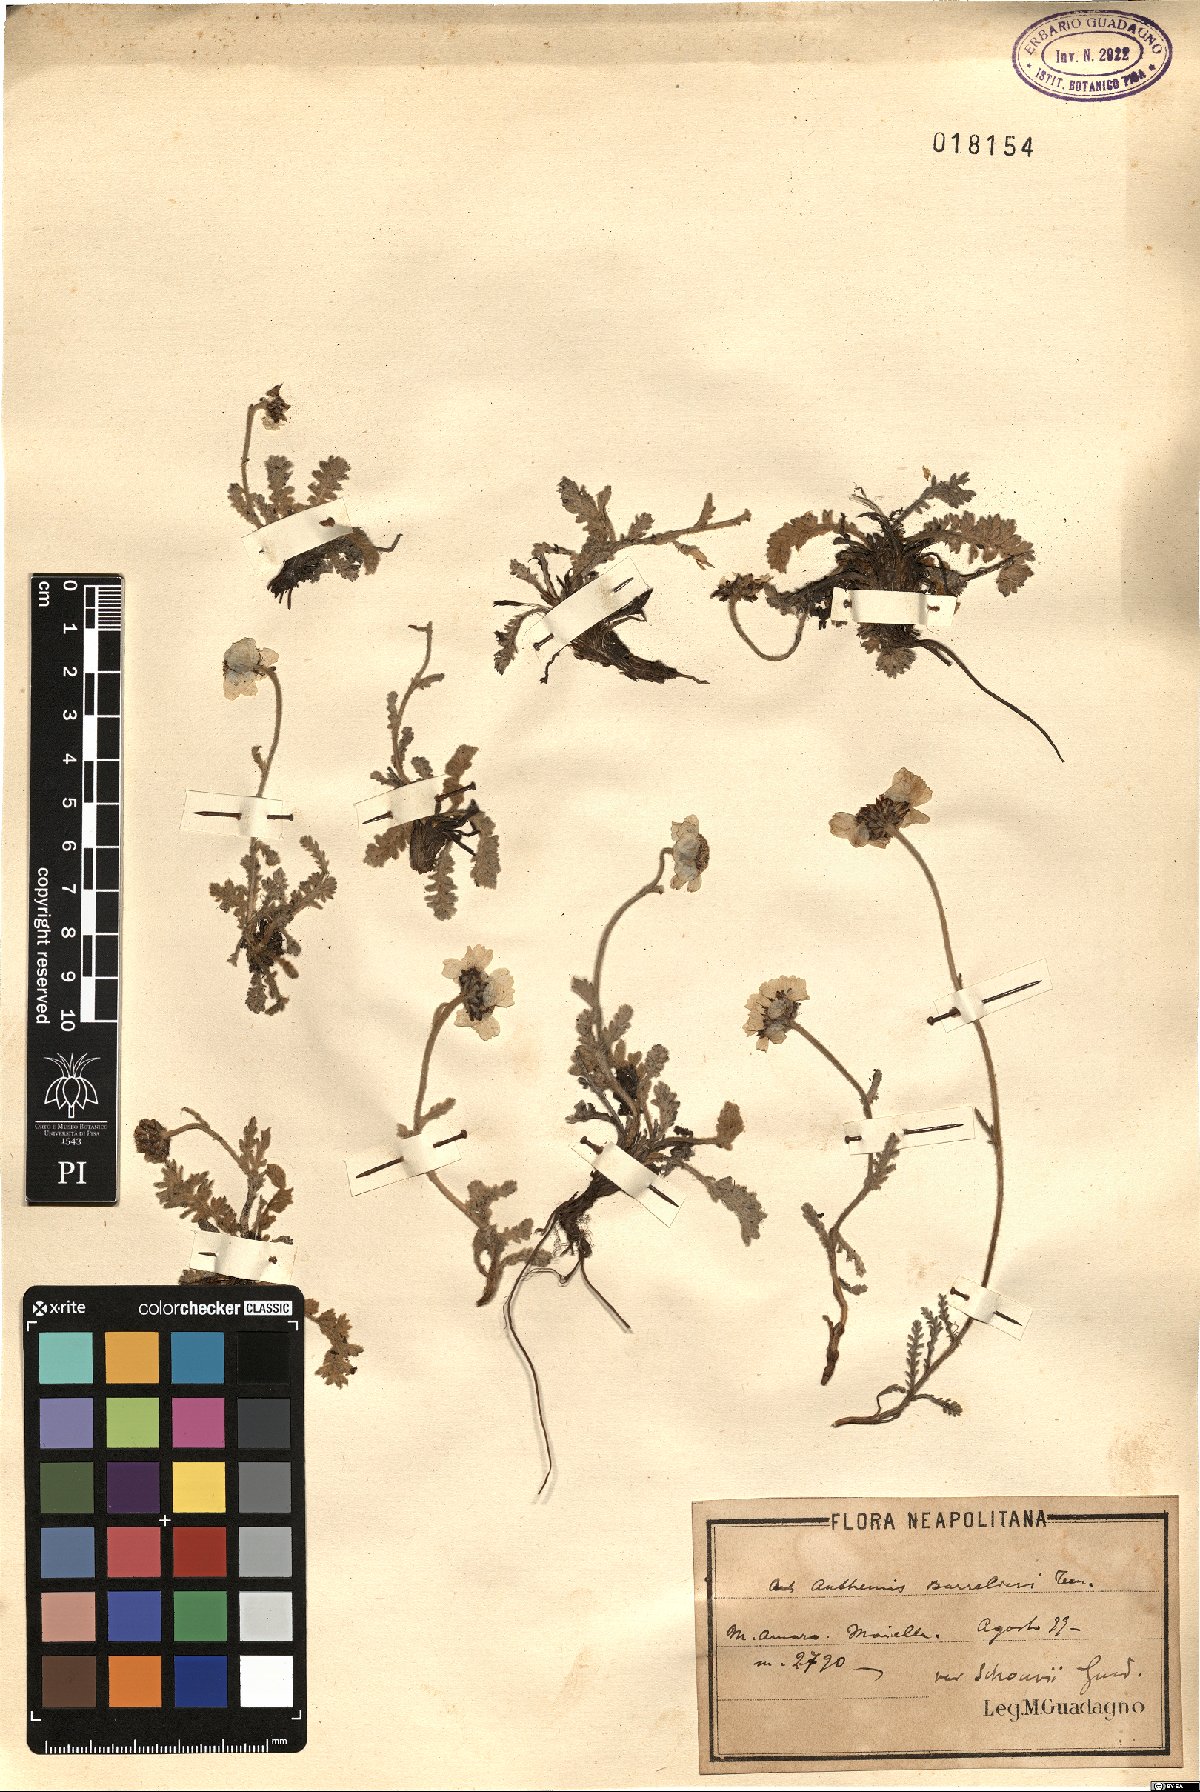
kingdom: Plantae
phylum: Tracheophyta
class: Magnoliopsida
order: Asterales
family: Asteraceae
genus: Achillea
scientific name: Achillea barrelieri
